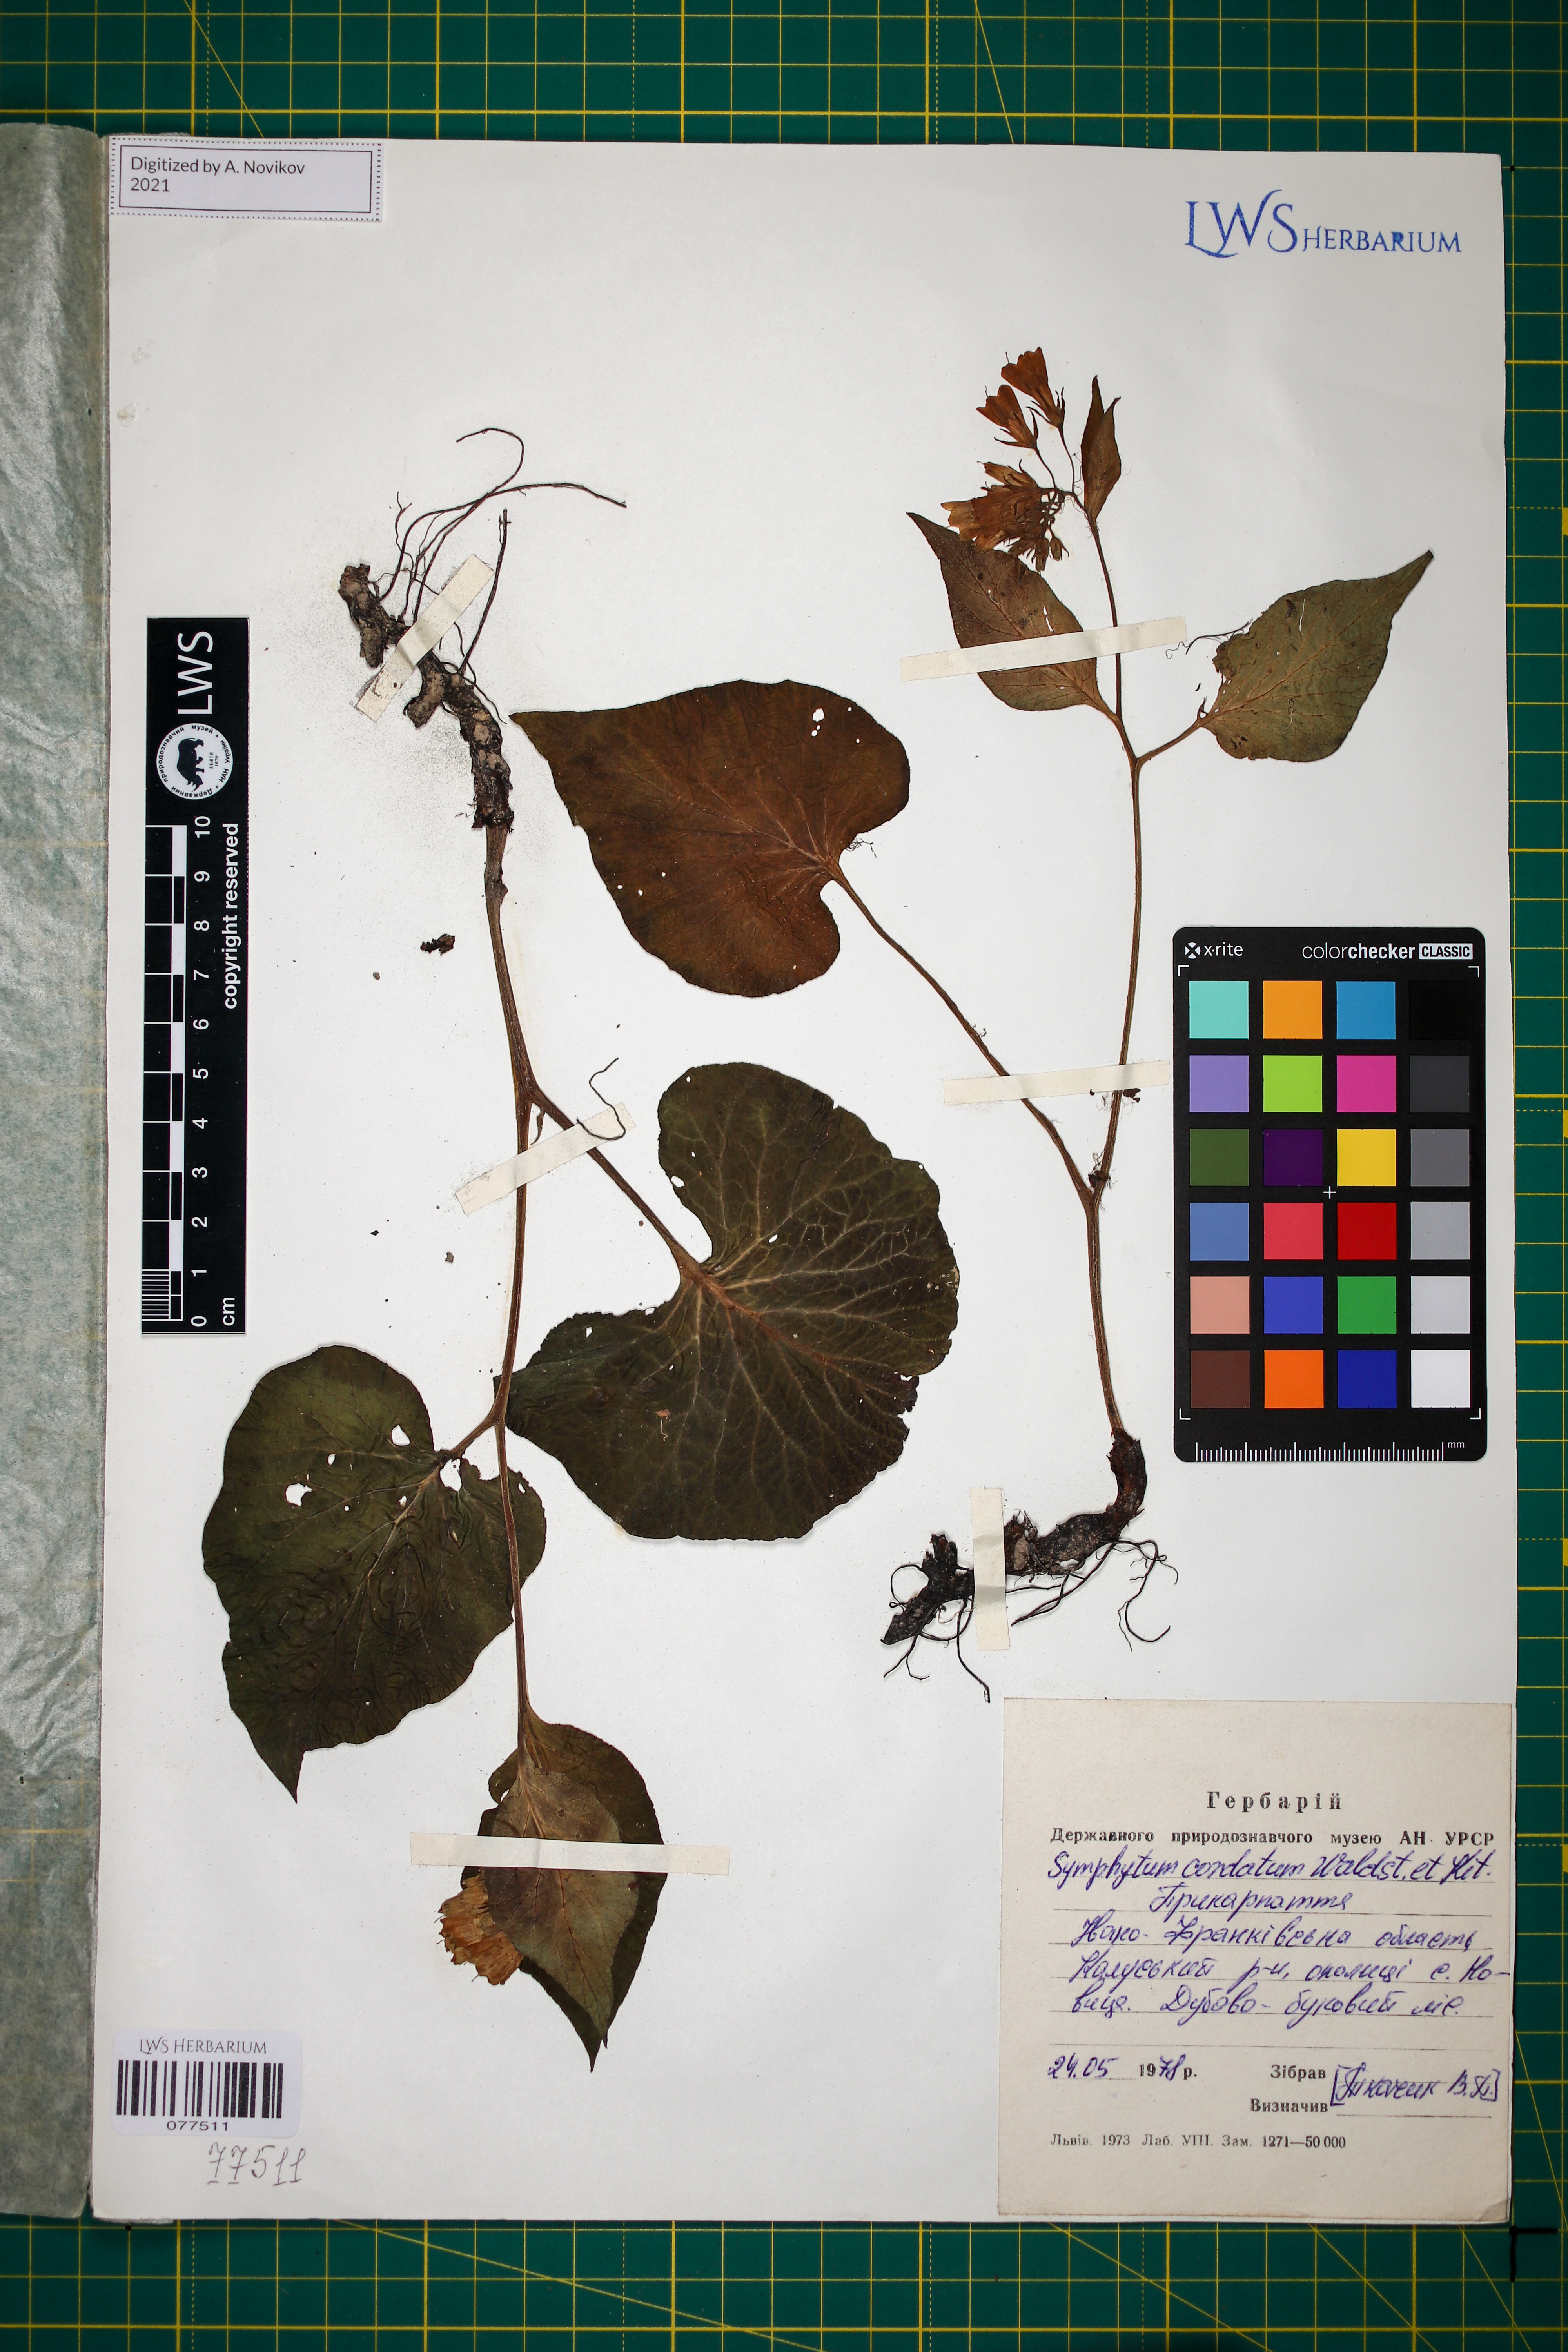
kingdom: Plantae
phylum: Tracheophyta
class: Magnoliopsida
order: Boraginales
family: Boraginaceae
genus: Symphytum
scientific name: Symphytum cordatum
